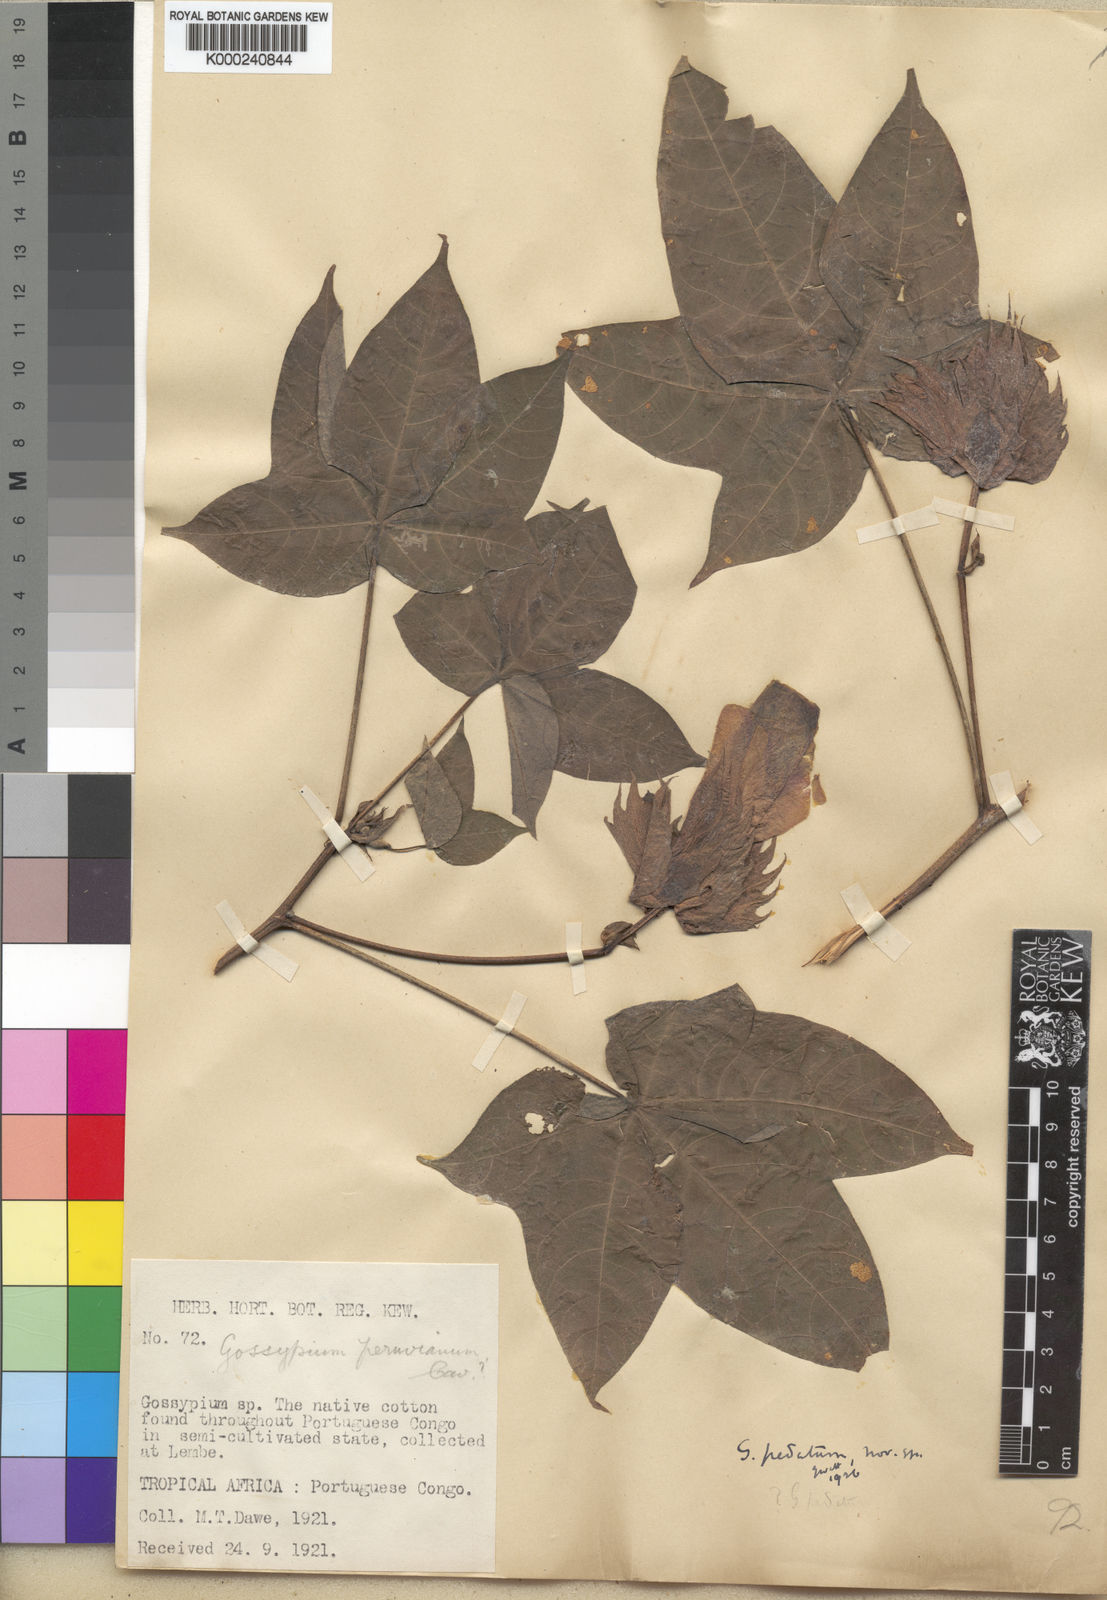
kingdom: Plantae
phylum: Tracheophyta
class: Magnoliopsida
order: Malvales
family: Malvaceae
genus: Gossypium
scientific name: Gossypium barbadense
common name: Creole cotton
